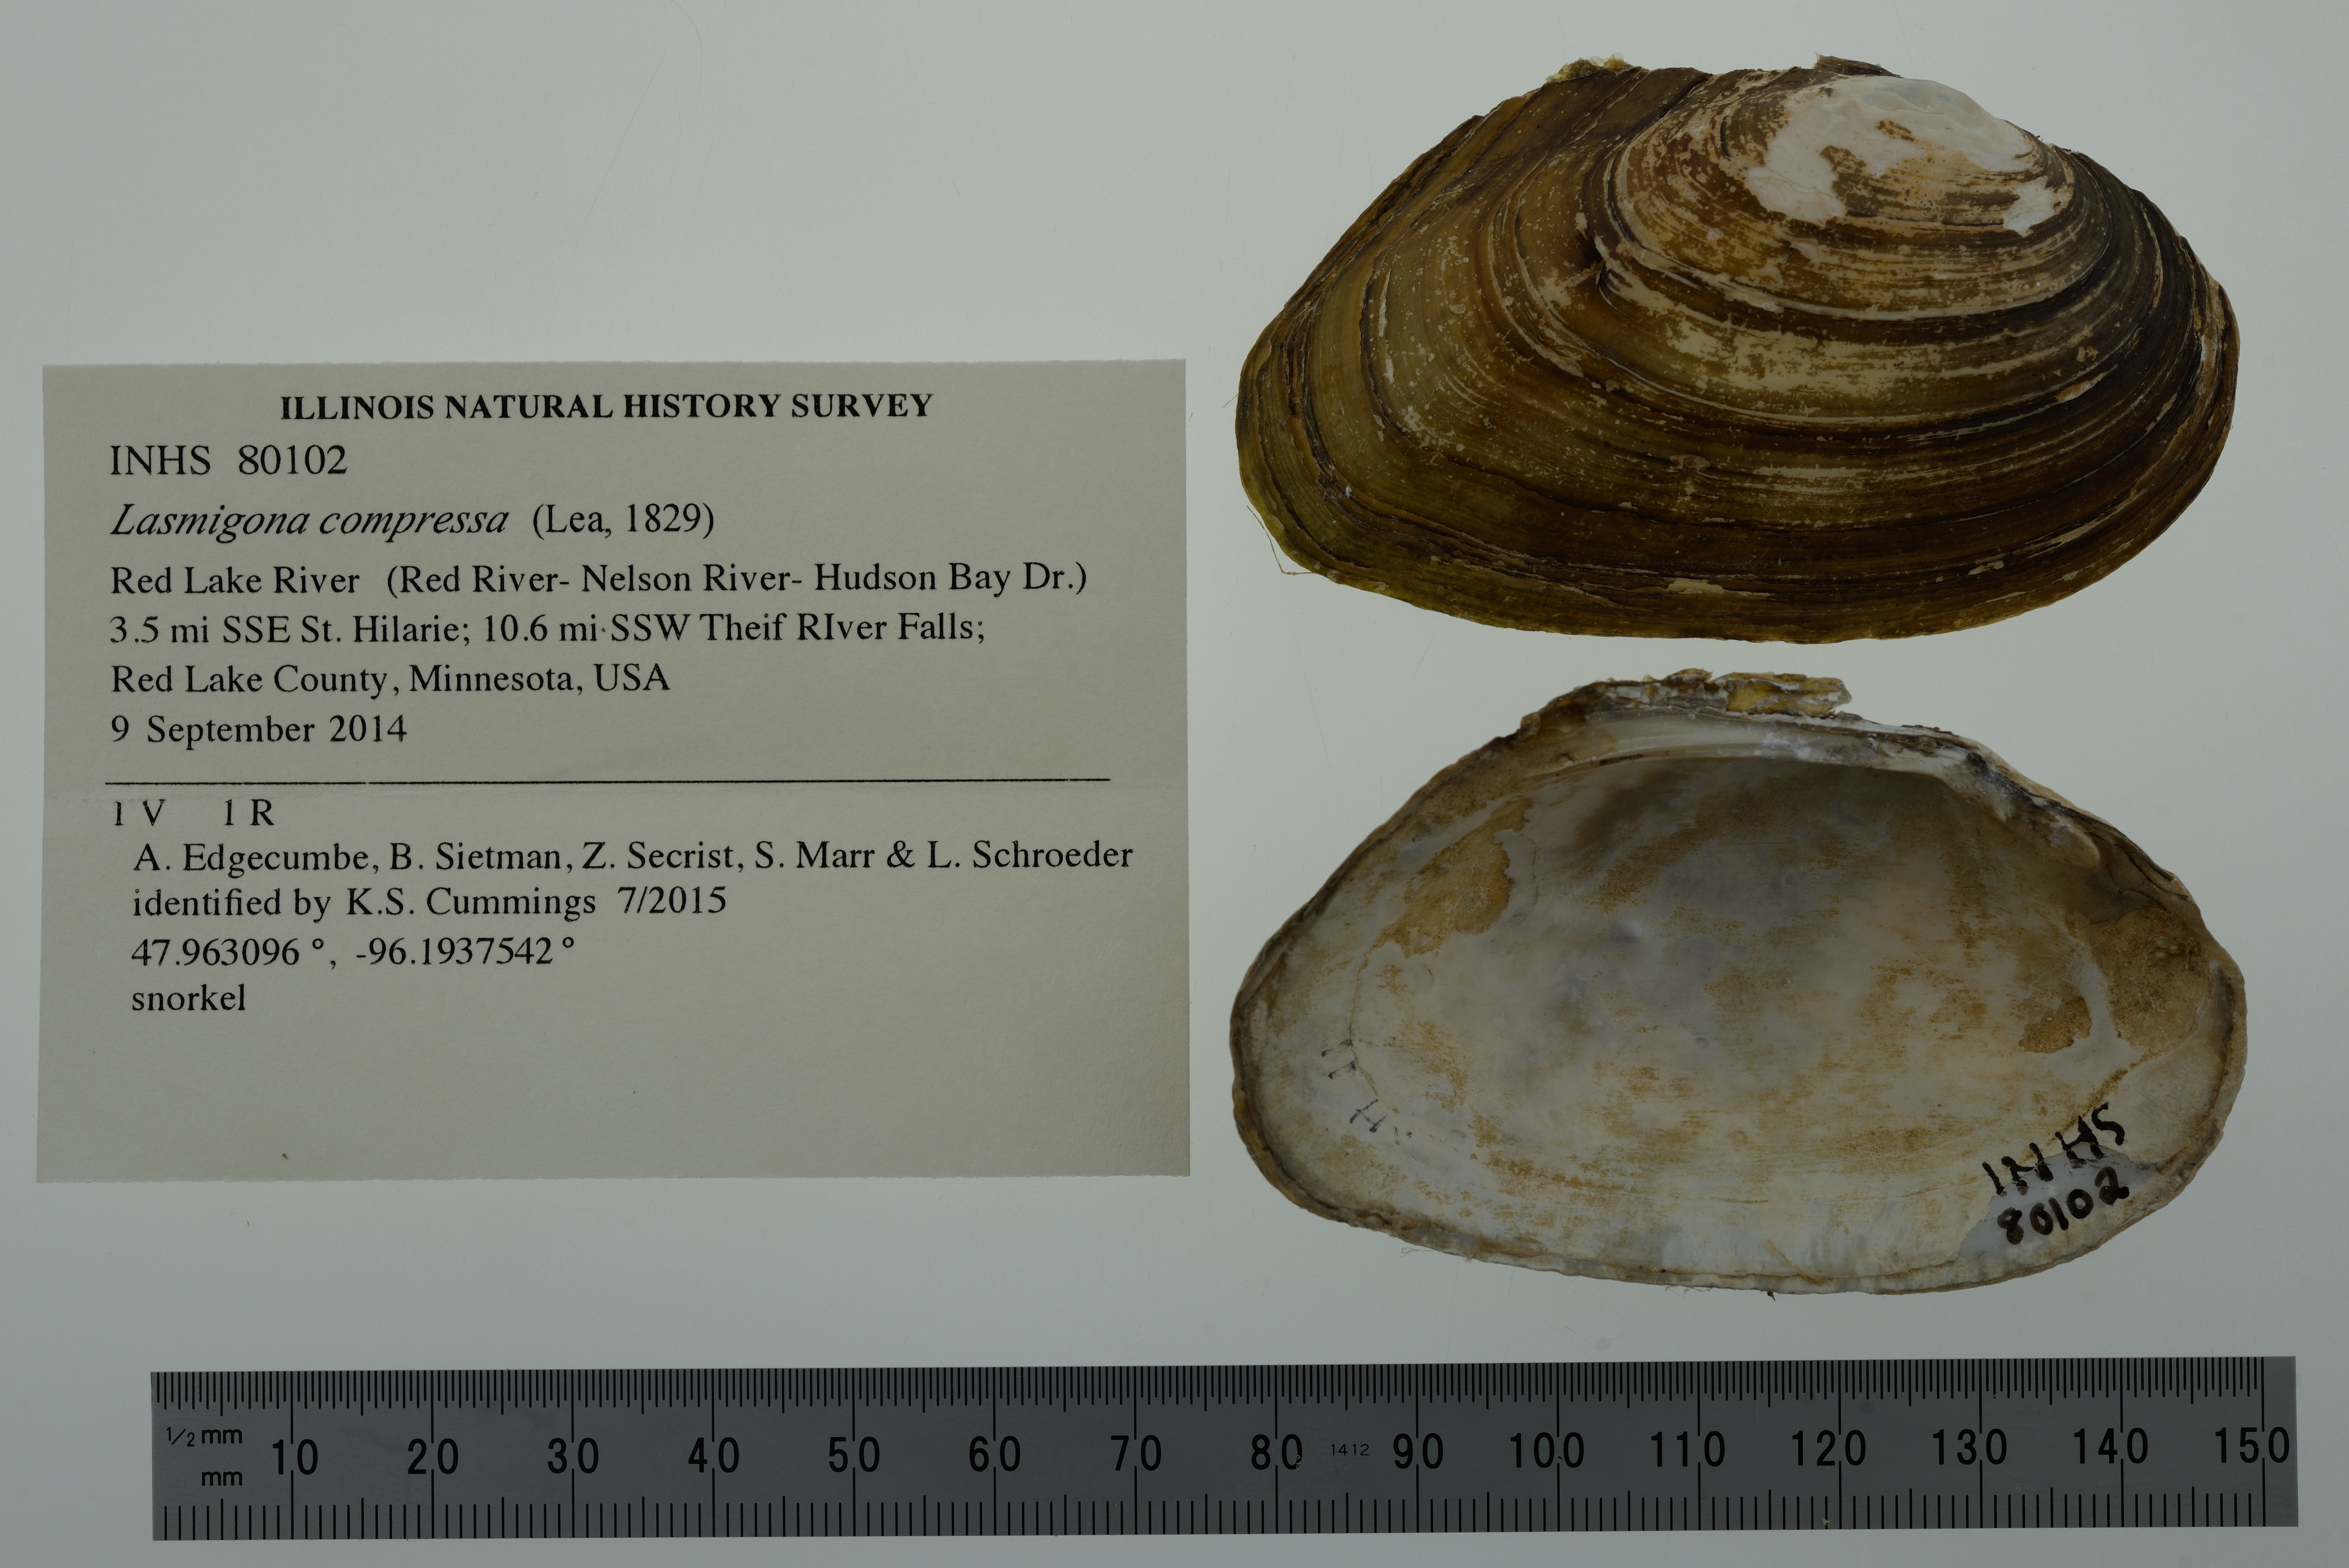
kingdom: Animalia
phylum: Mollusca
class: Bivalvia
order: Unionida
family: Unionidae
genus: Lasmigona
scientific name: Lasmigona compressa
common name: Creek heelsplitter
